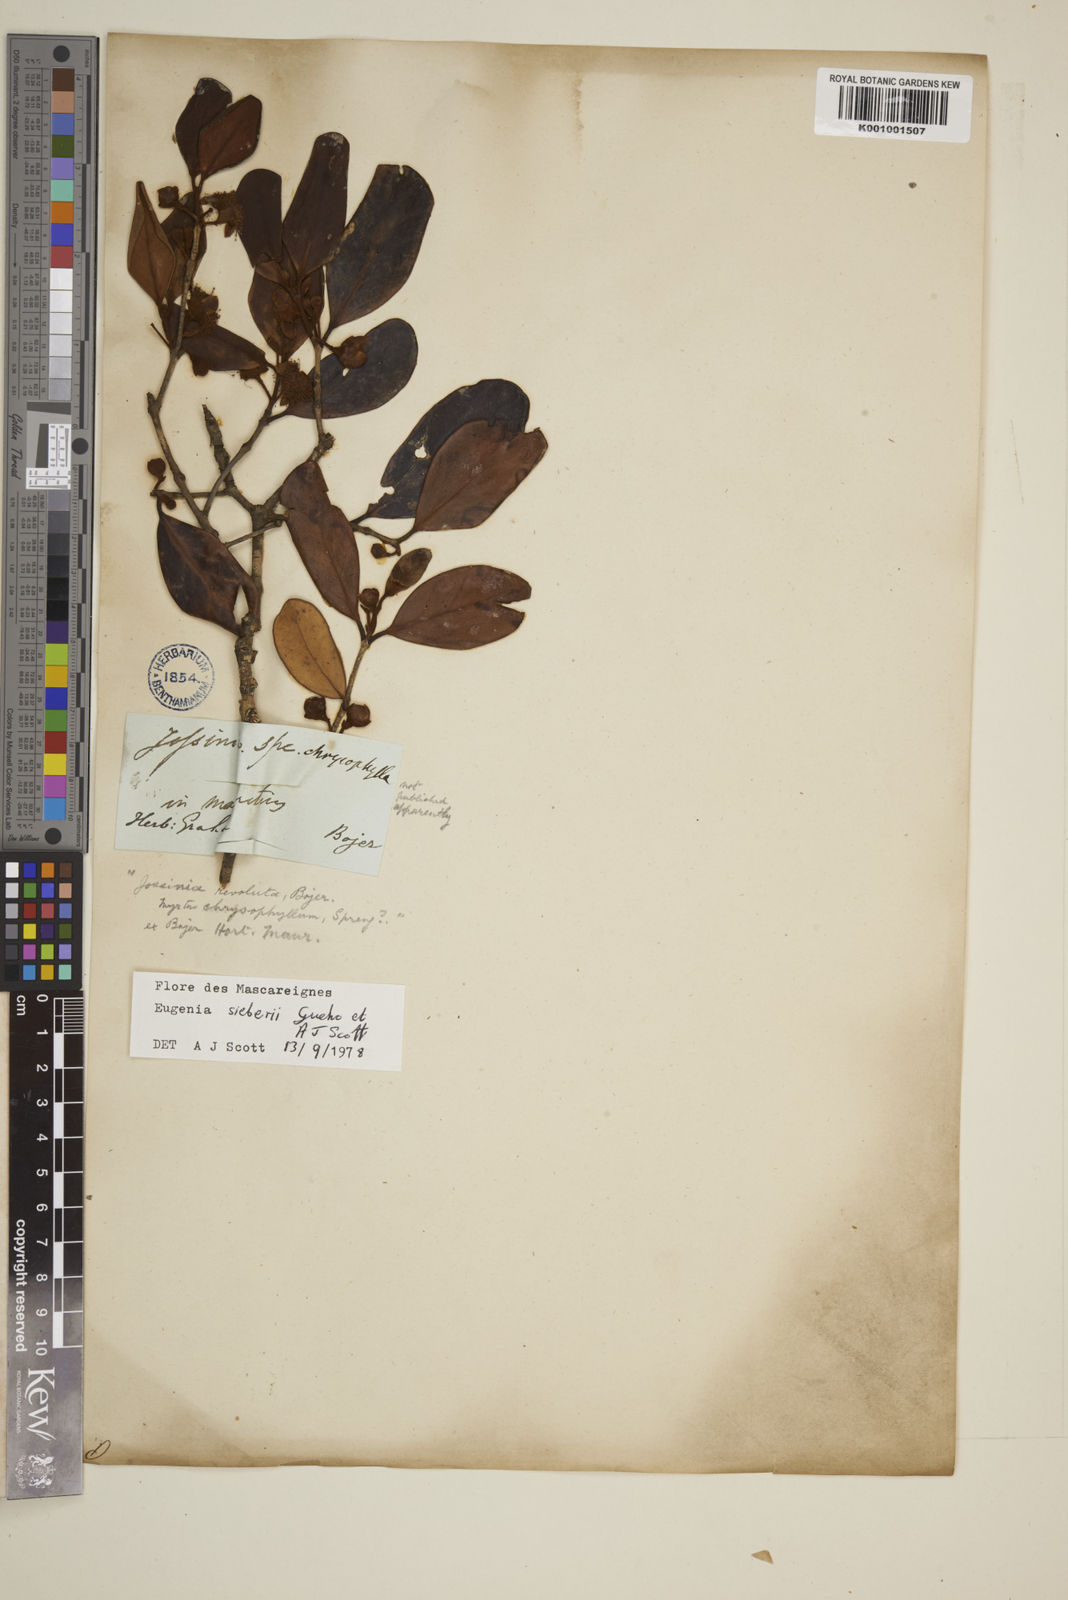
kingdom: Plantae
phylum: Tracheophyta
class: Magnoliopsida
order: Myrtales
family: Myrtaceae
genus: Eugenia
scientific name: Eugenia
